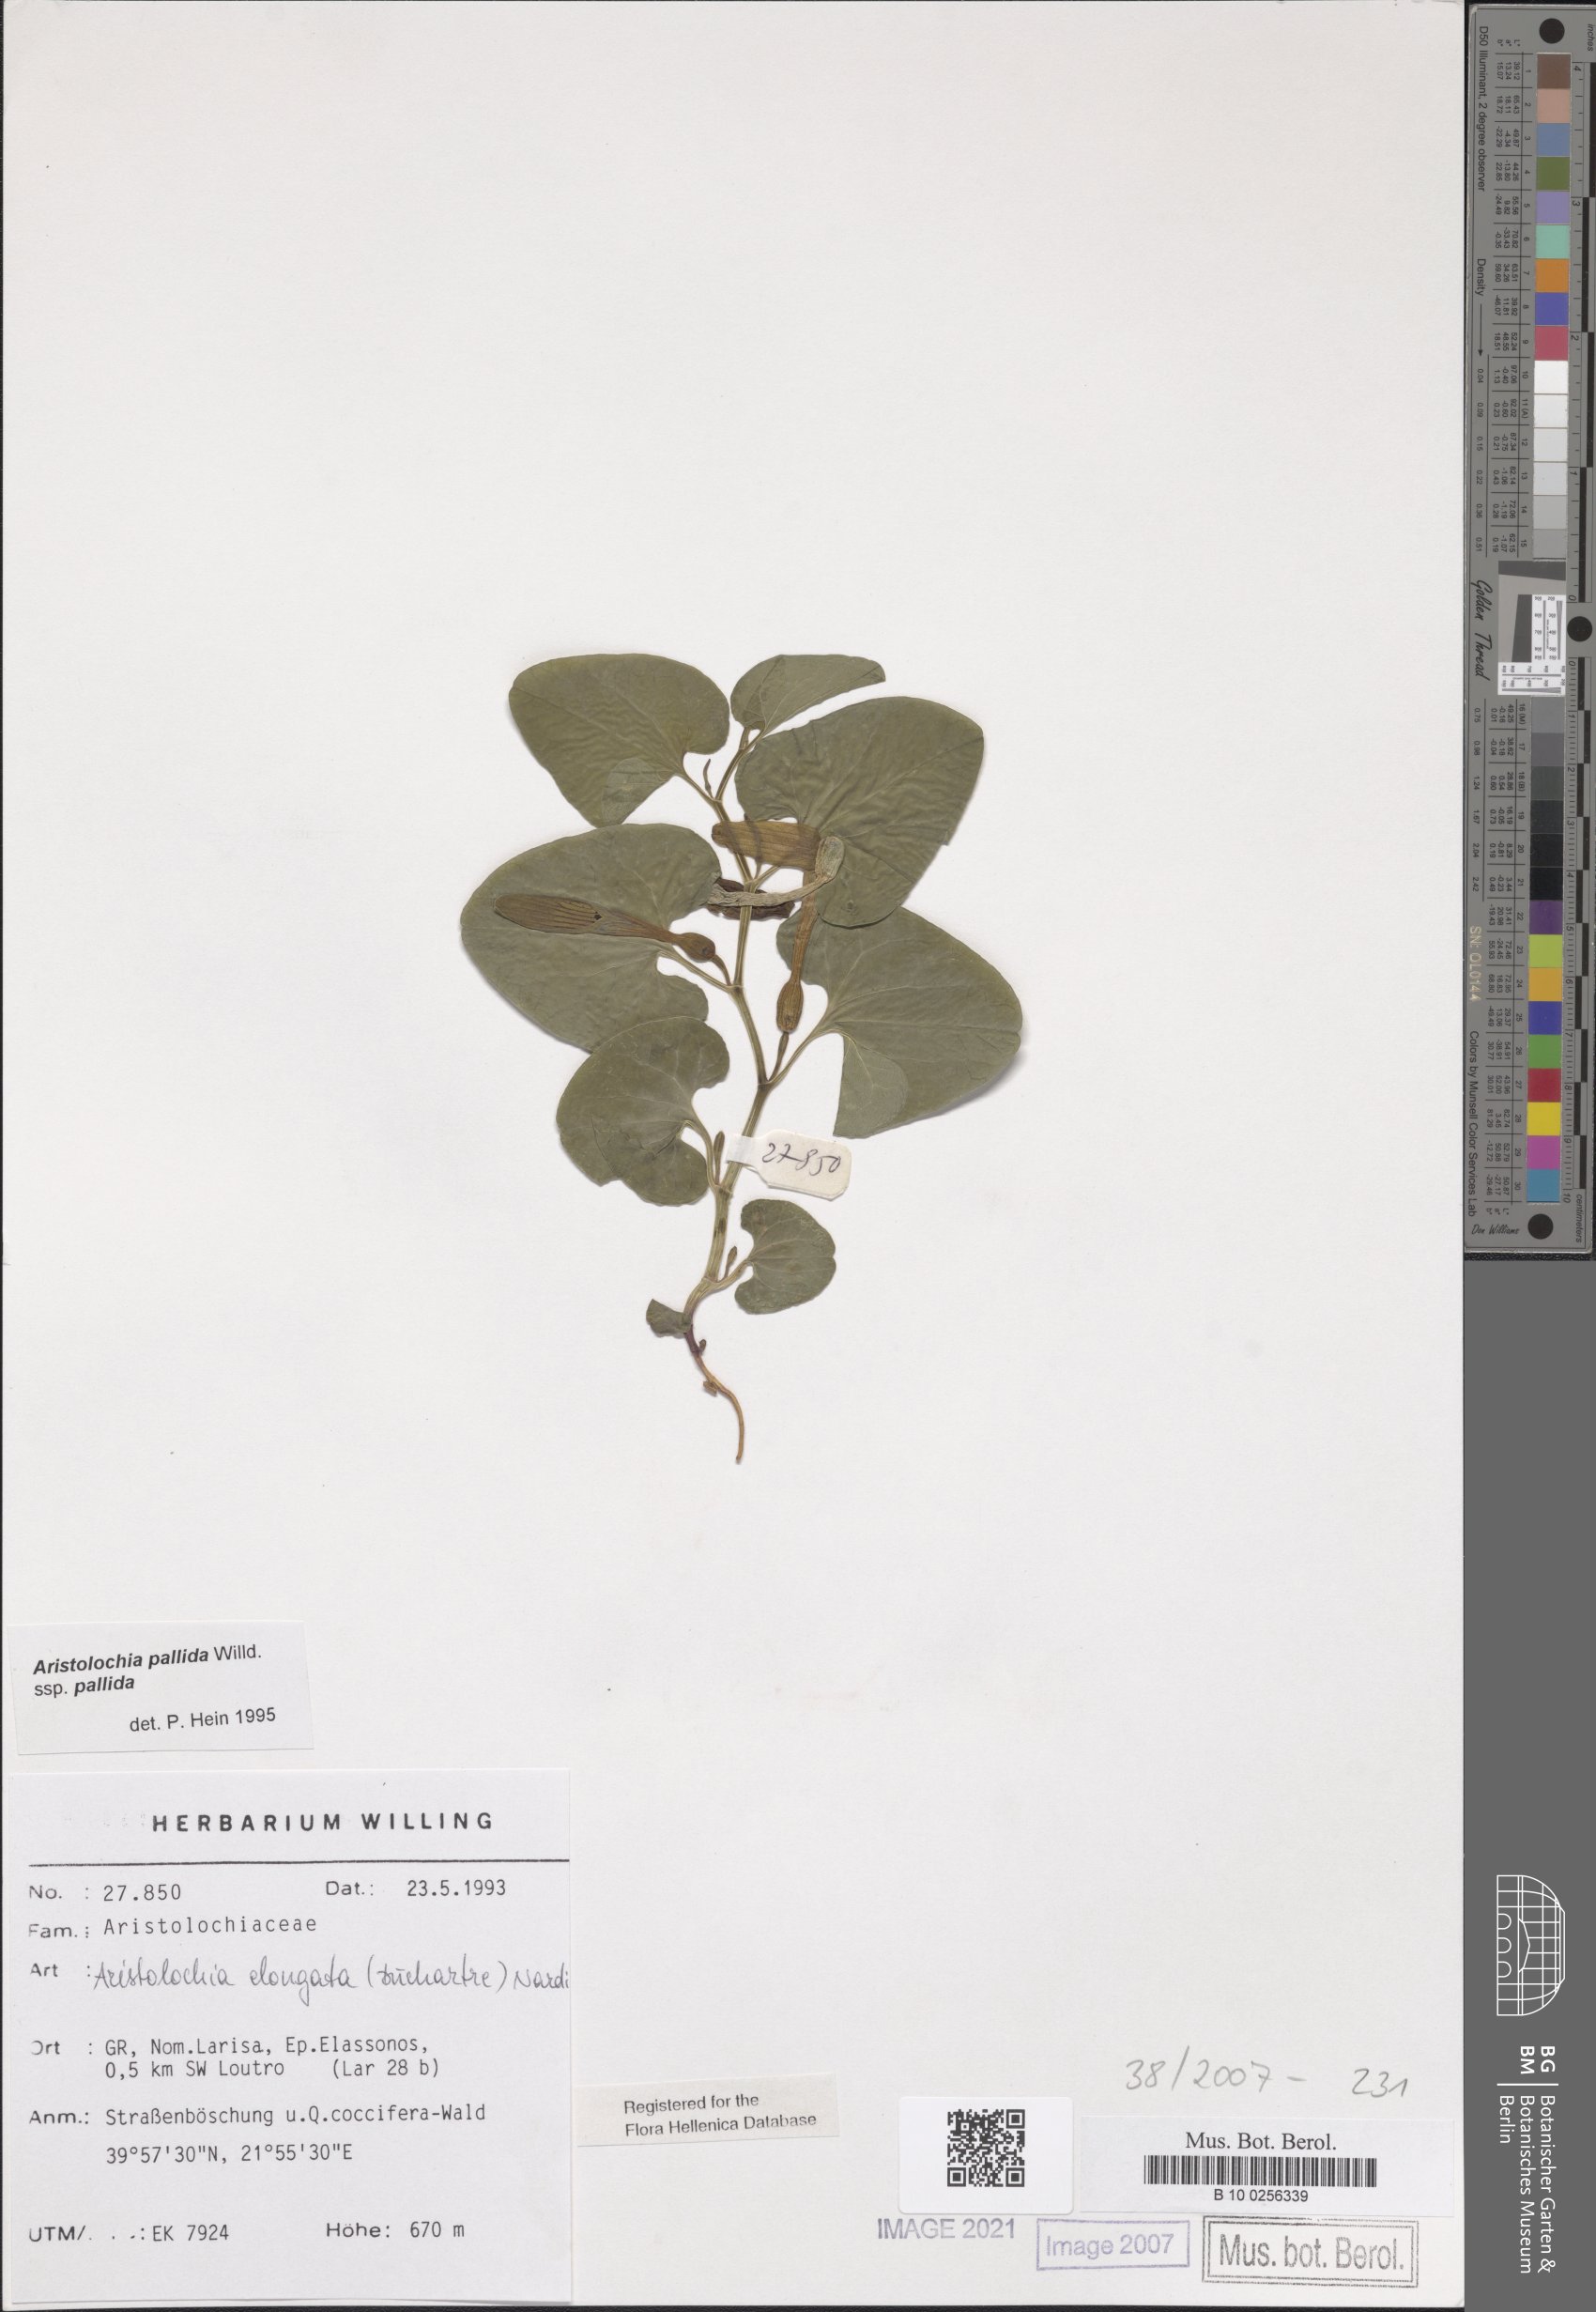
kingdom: Plantae
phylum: Tracheophyta
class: Magnoliopsida
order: Piperales
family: Aristolochiaceae
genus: Aristolochia
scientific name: Aristolochia nardiana
